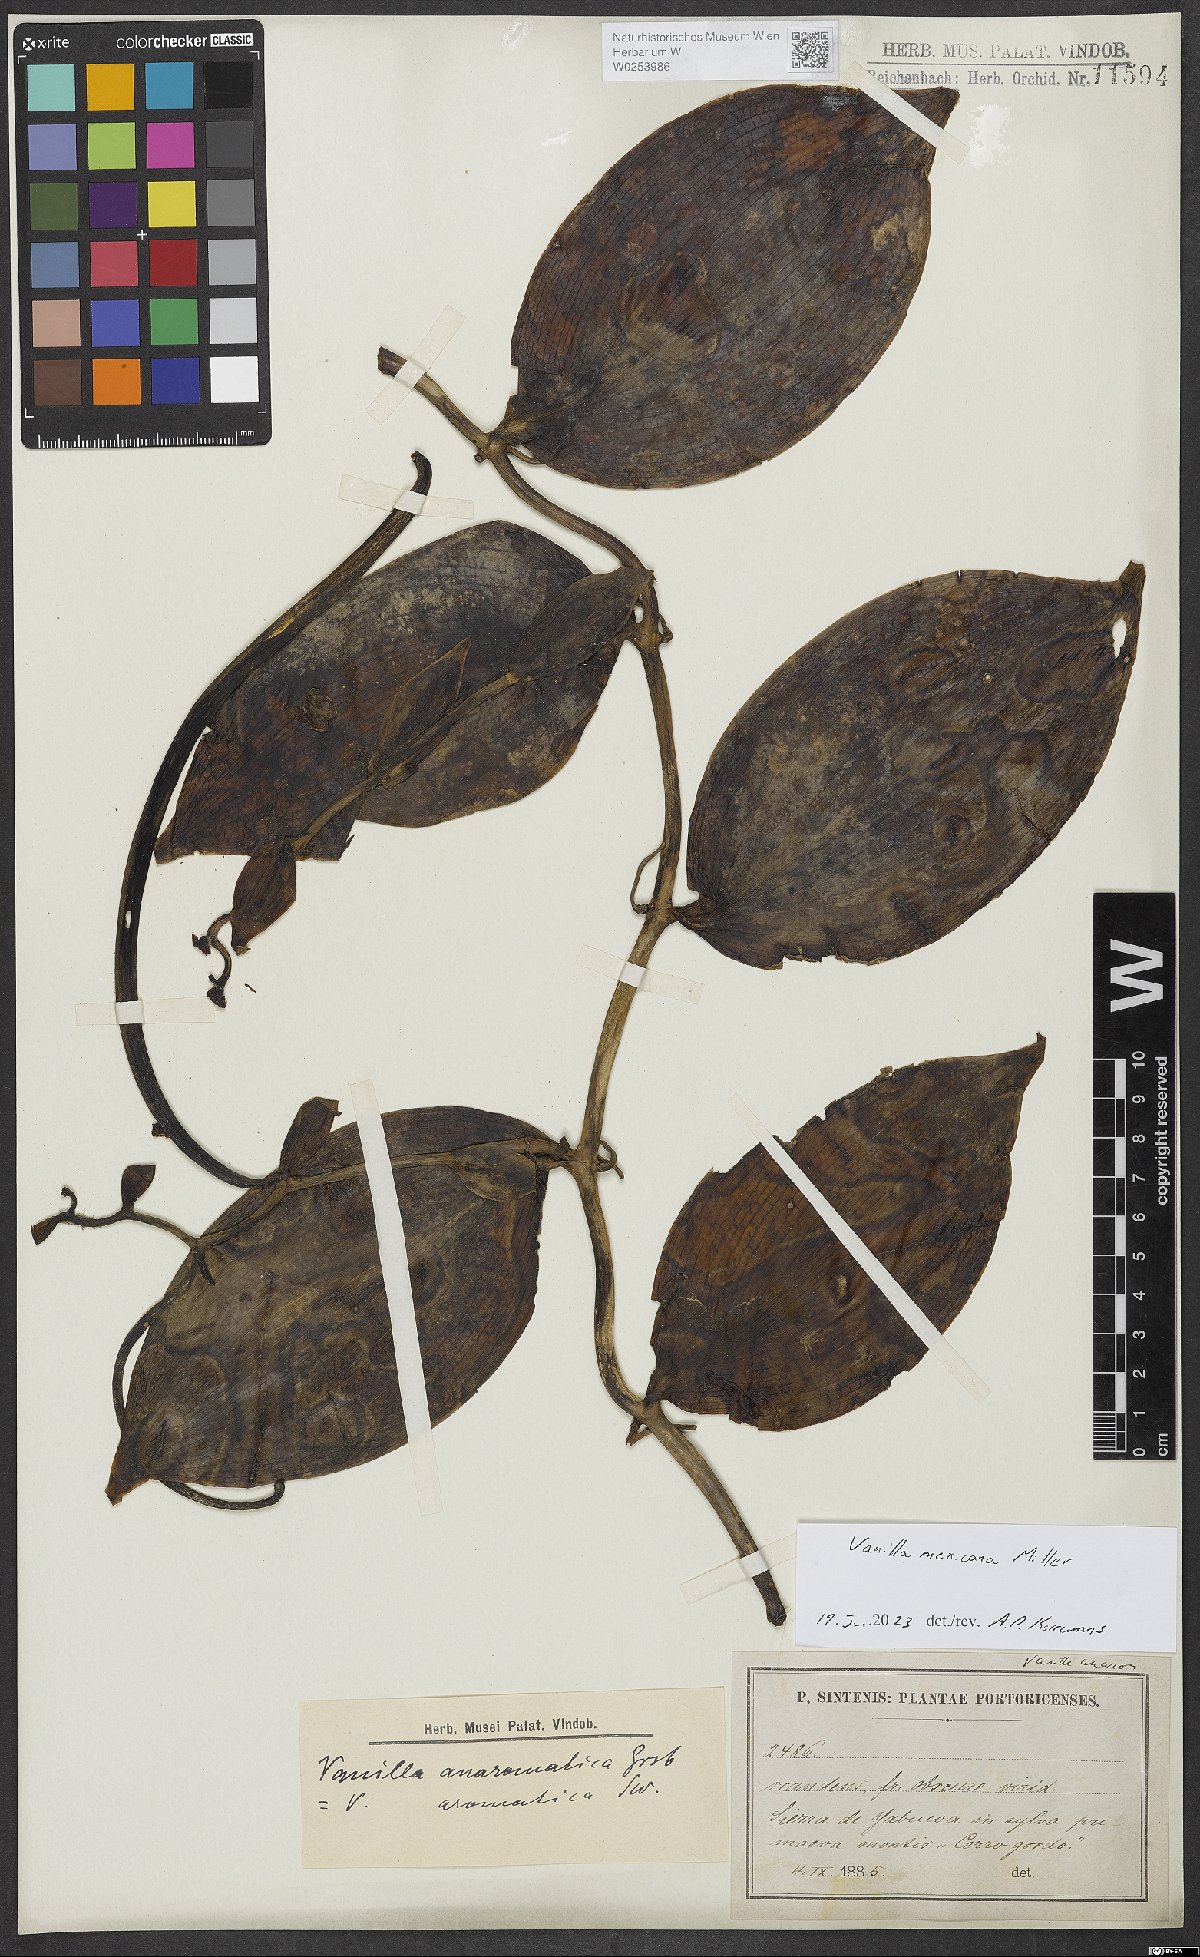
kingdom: Plantae
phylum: Tracheophyta
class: Liliopsida
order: Asparagales
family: Orchidaceae
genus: Vanilla
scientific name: Vanilla mexicana
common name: Mexican vanilla
